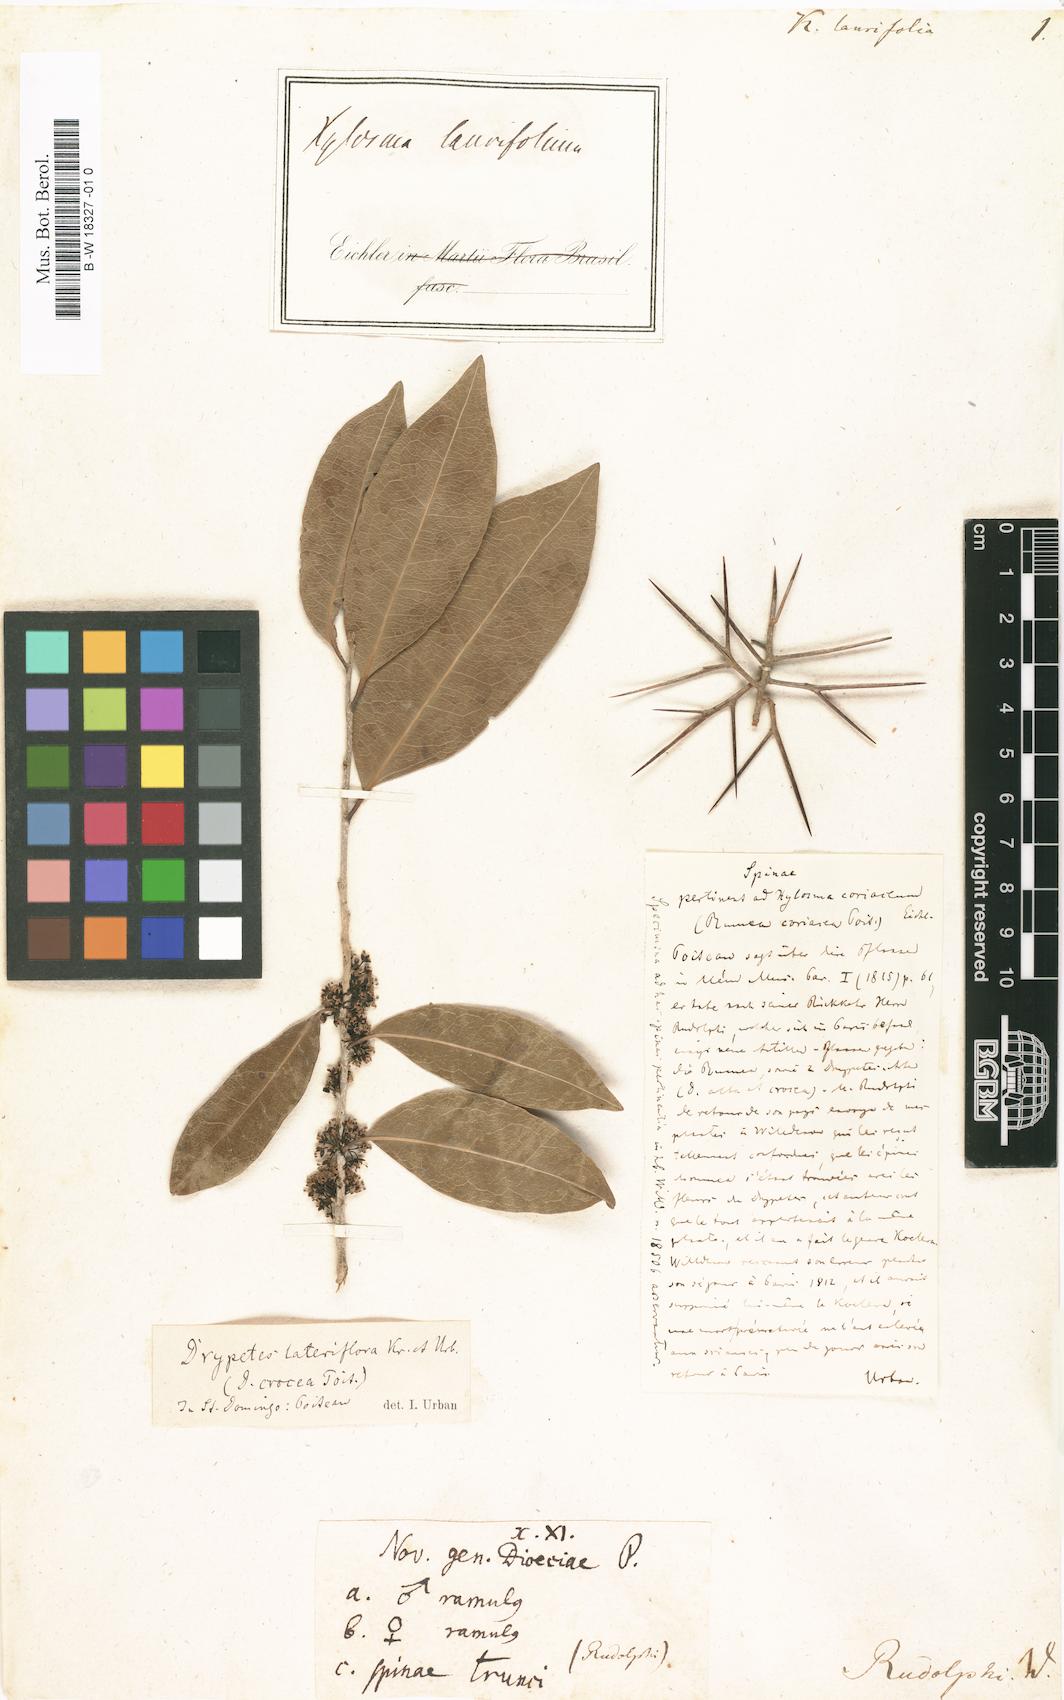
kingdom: Plantae
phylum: Tracheophyta
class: Magnoliopsida
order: Malpighiales
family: Salicaceae
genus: Xylosma
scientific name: Xylosma coriacea
